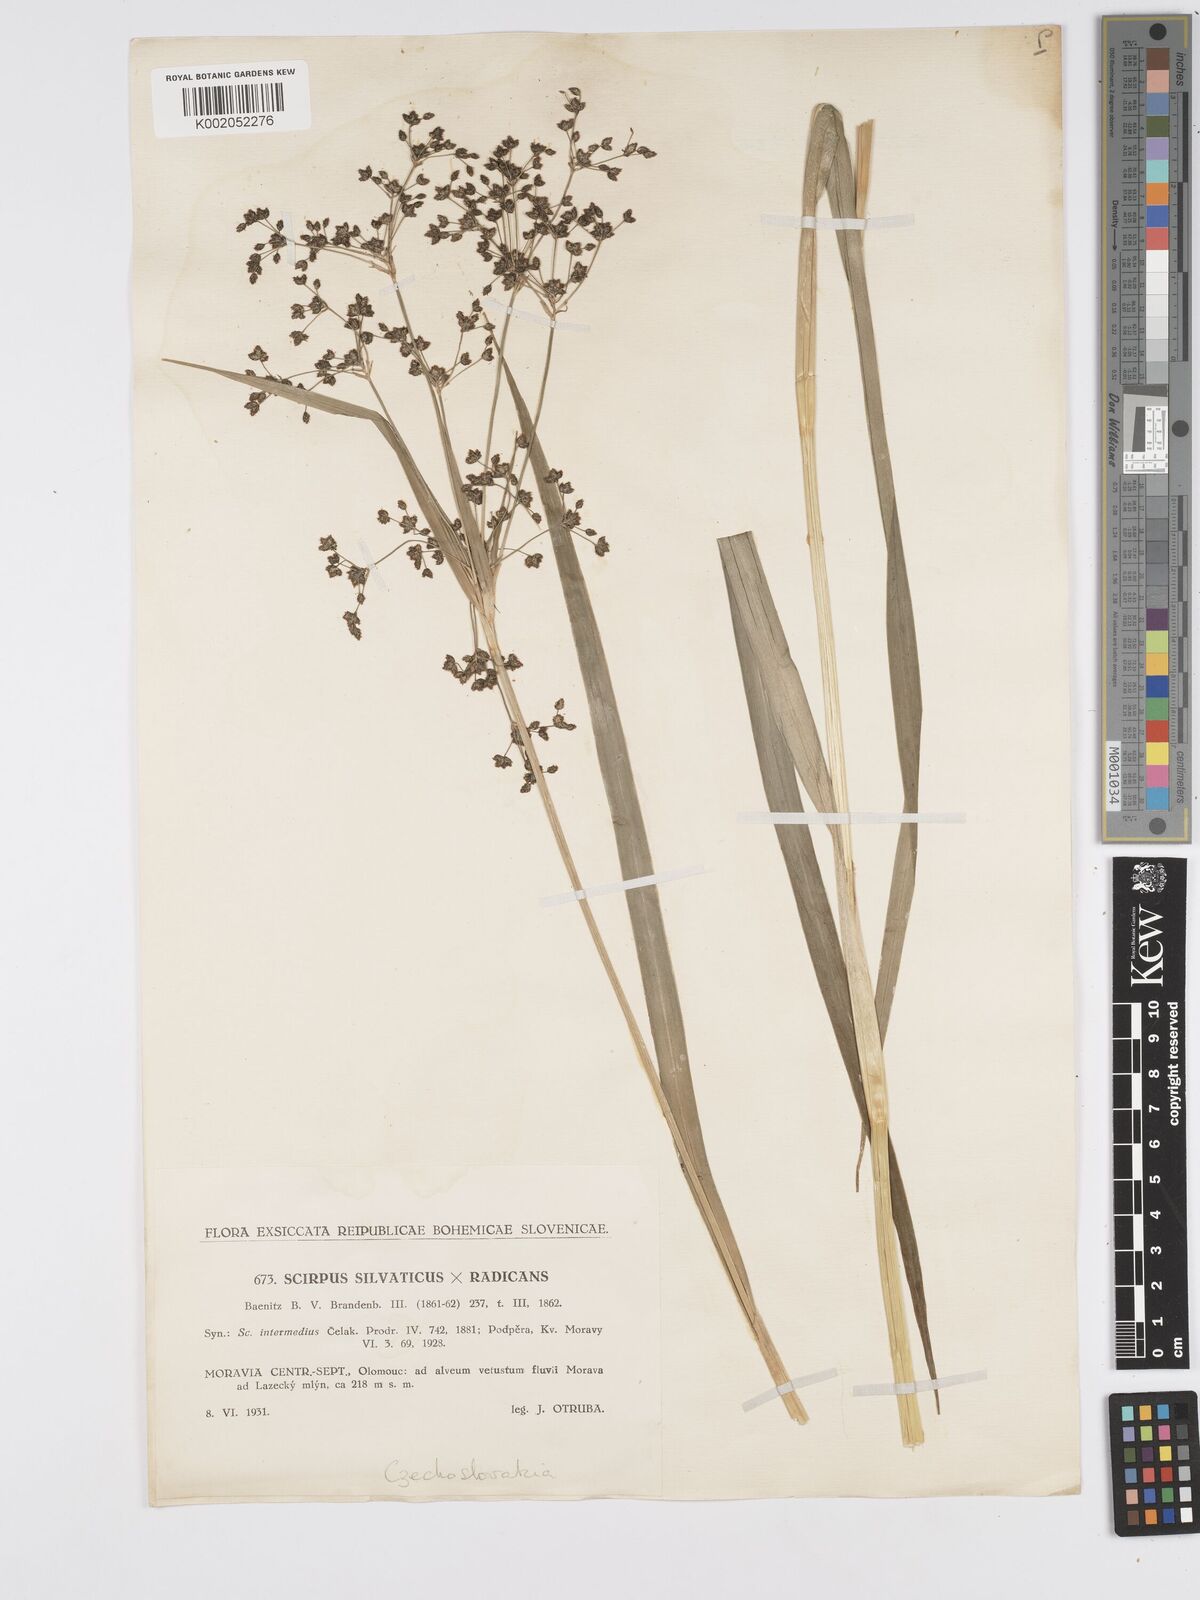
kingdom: Plantae
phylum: Tracheophyta
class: Liliopsida
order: Poales
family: Cyperaceae
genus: Scirpus
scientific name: Scirpus
